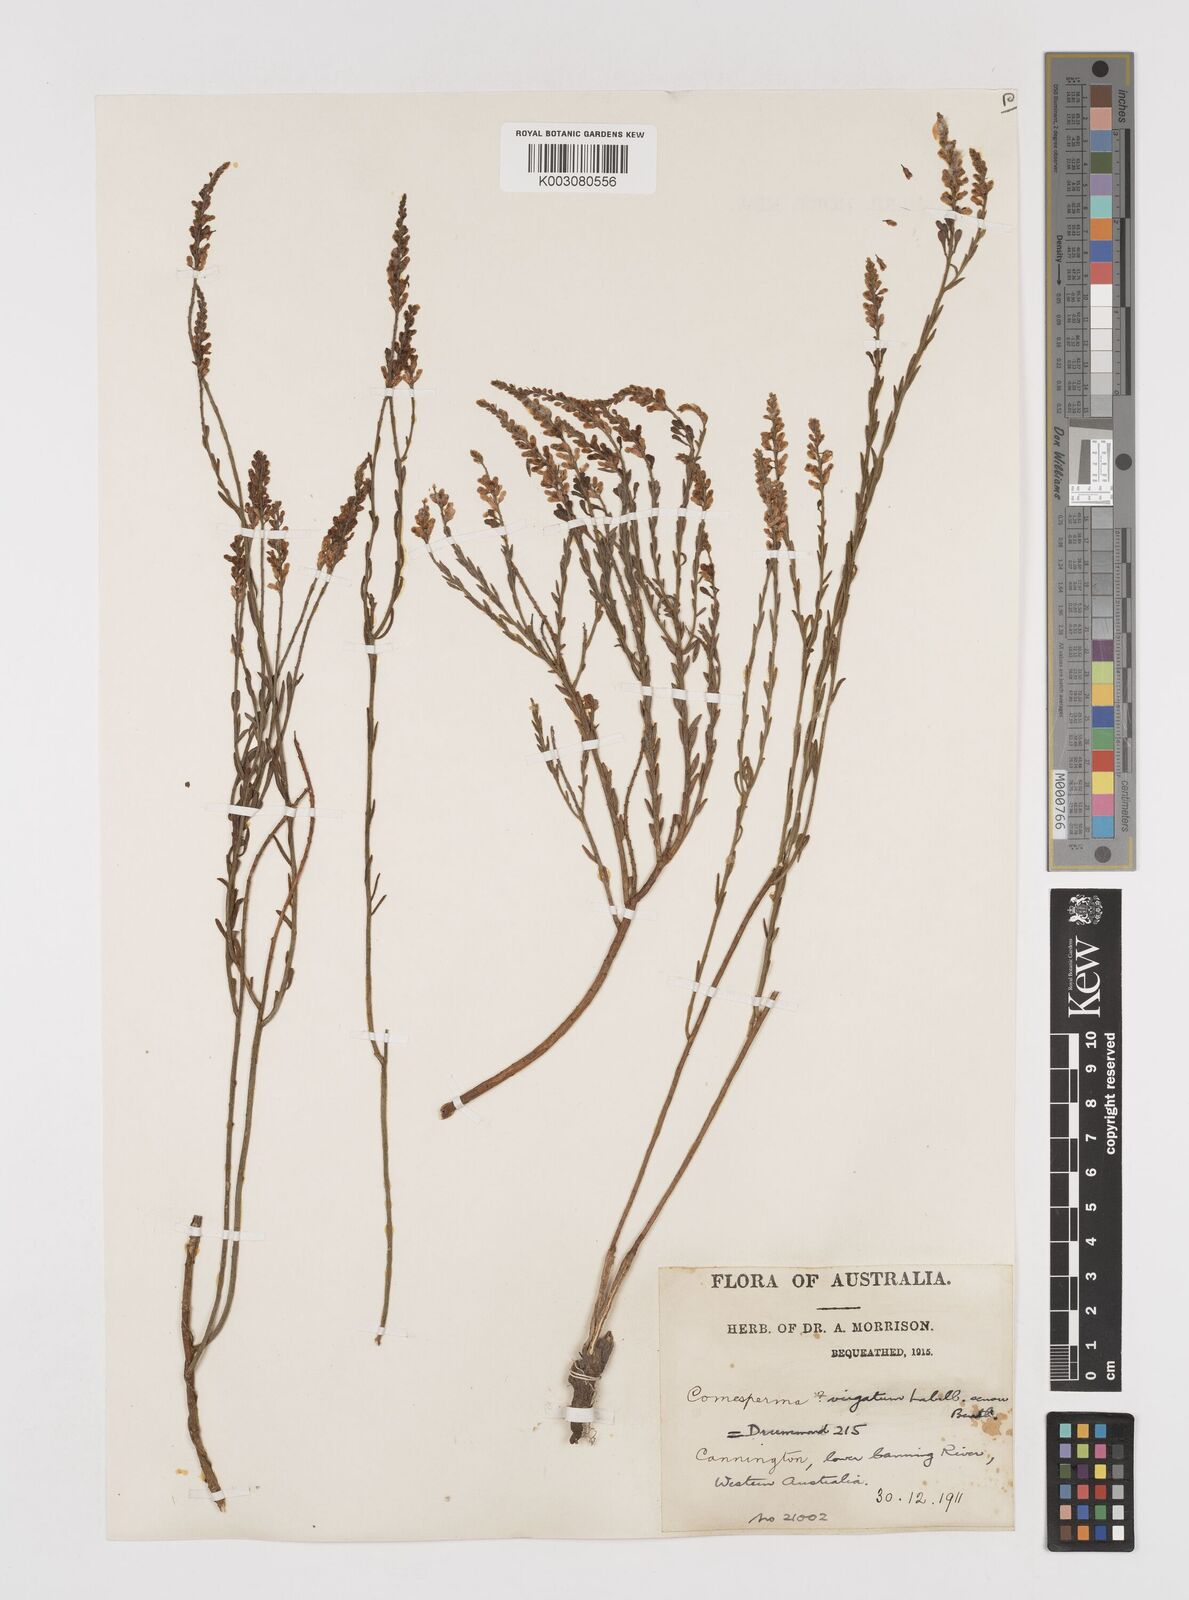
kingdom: Plantae
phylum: Tracheophyta
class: Magnoliopsida
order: Fabales
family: Polygalaceae
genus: Comesperma
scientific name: Comesperma virgatum
